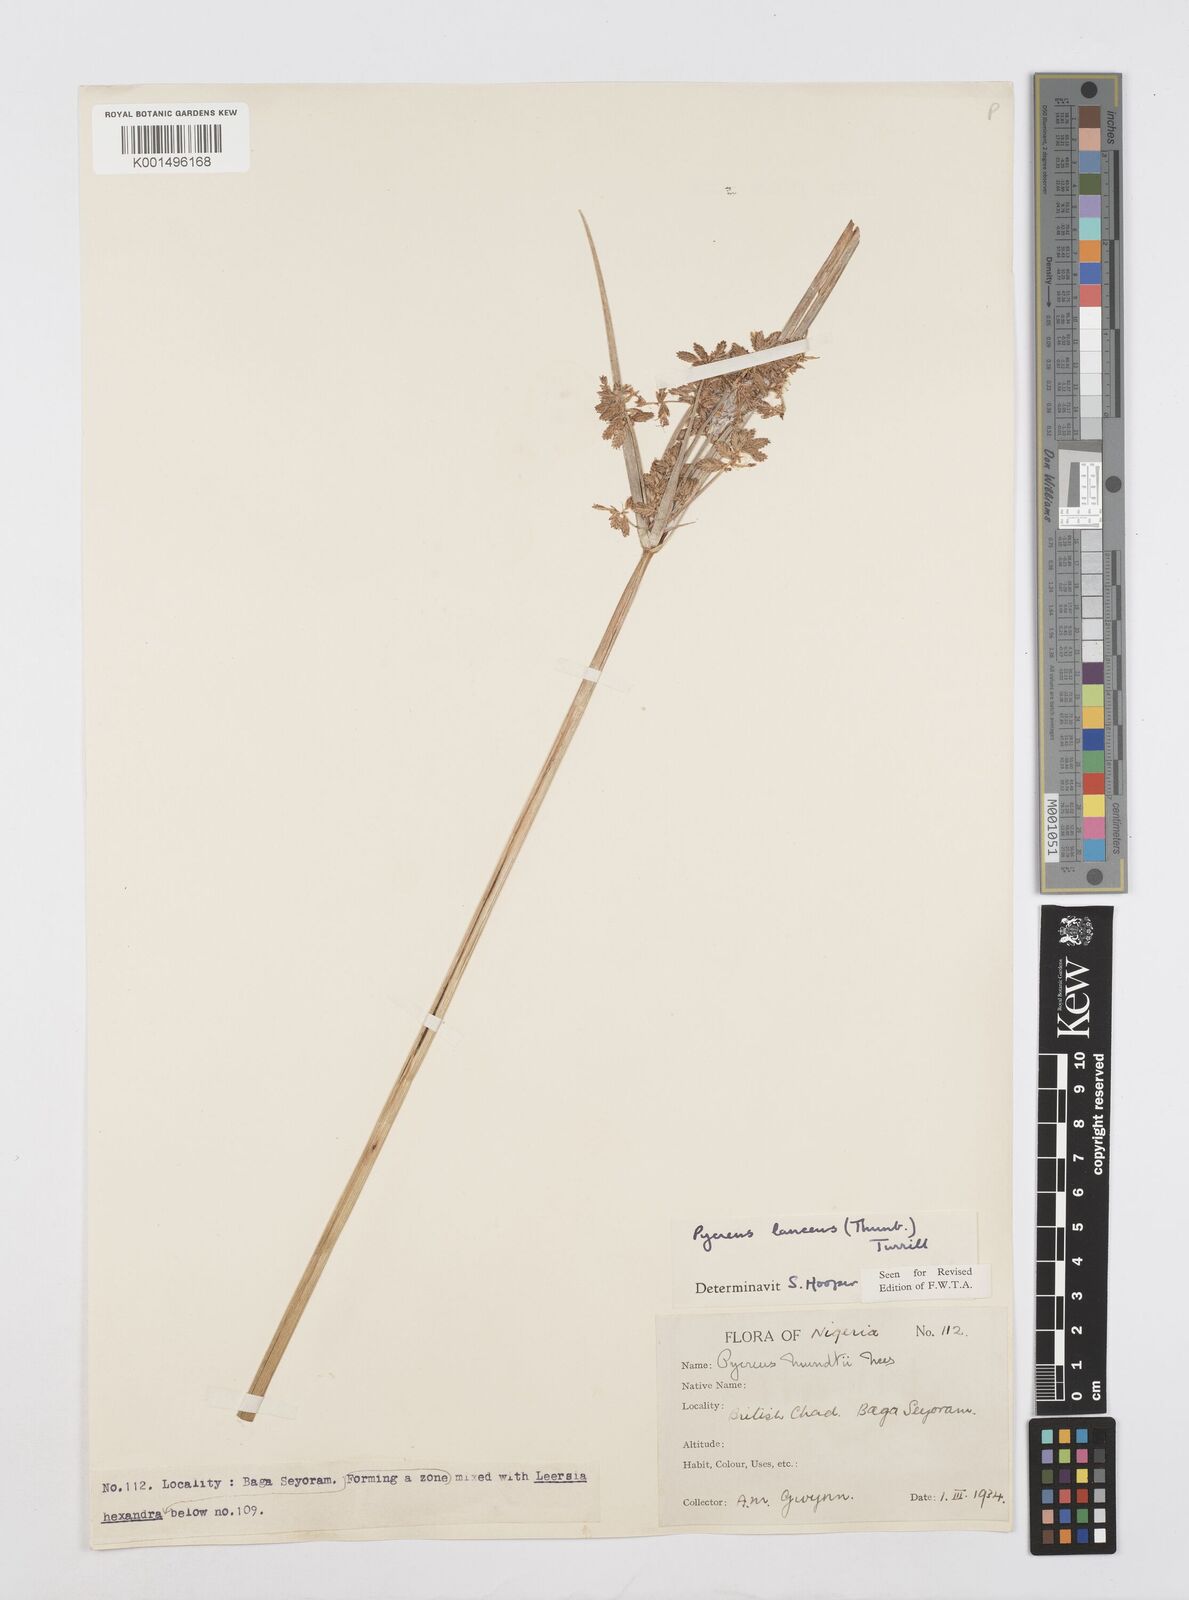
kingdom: Plantae
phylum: Tracheophyta
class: Liliopsida
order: Poales
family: Cyperaceae
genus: Cyperus
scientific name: Cyperus nitidus
